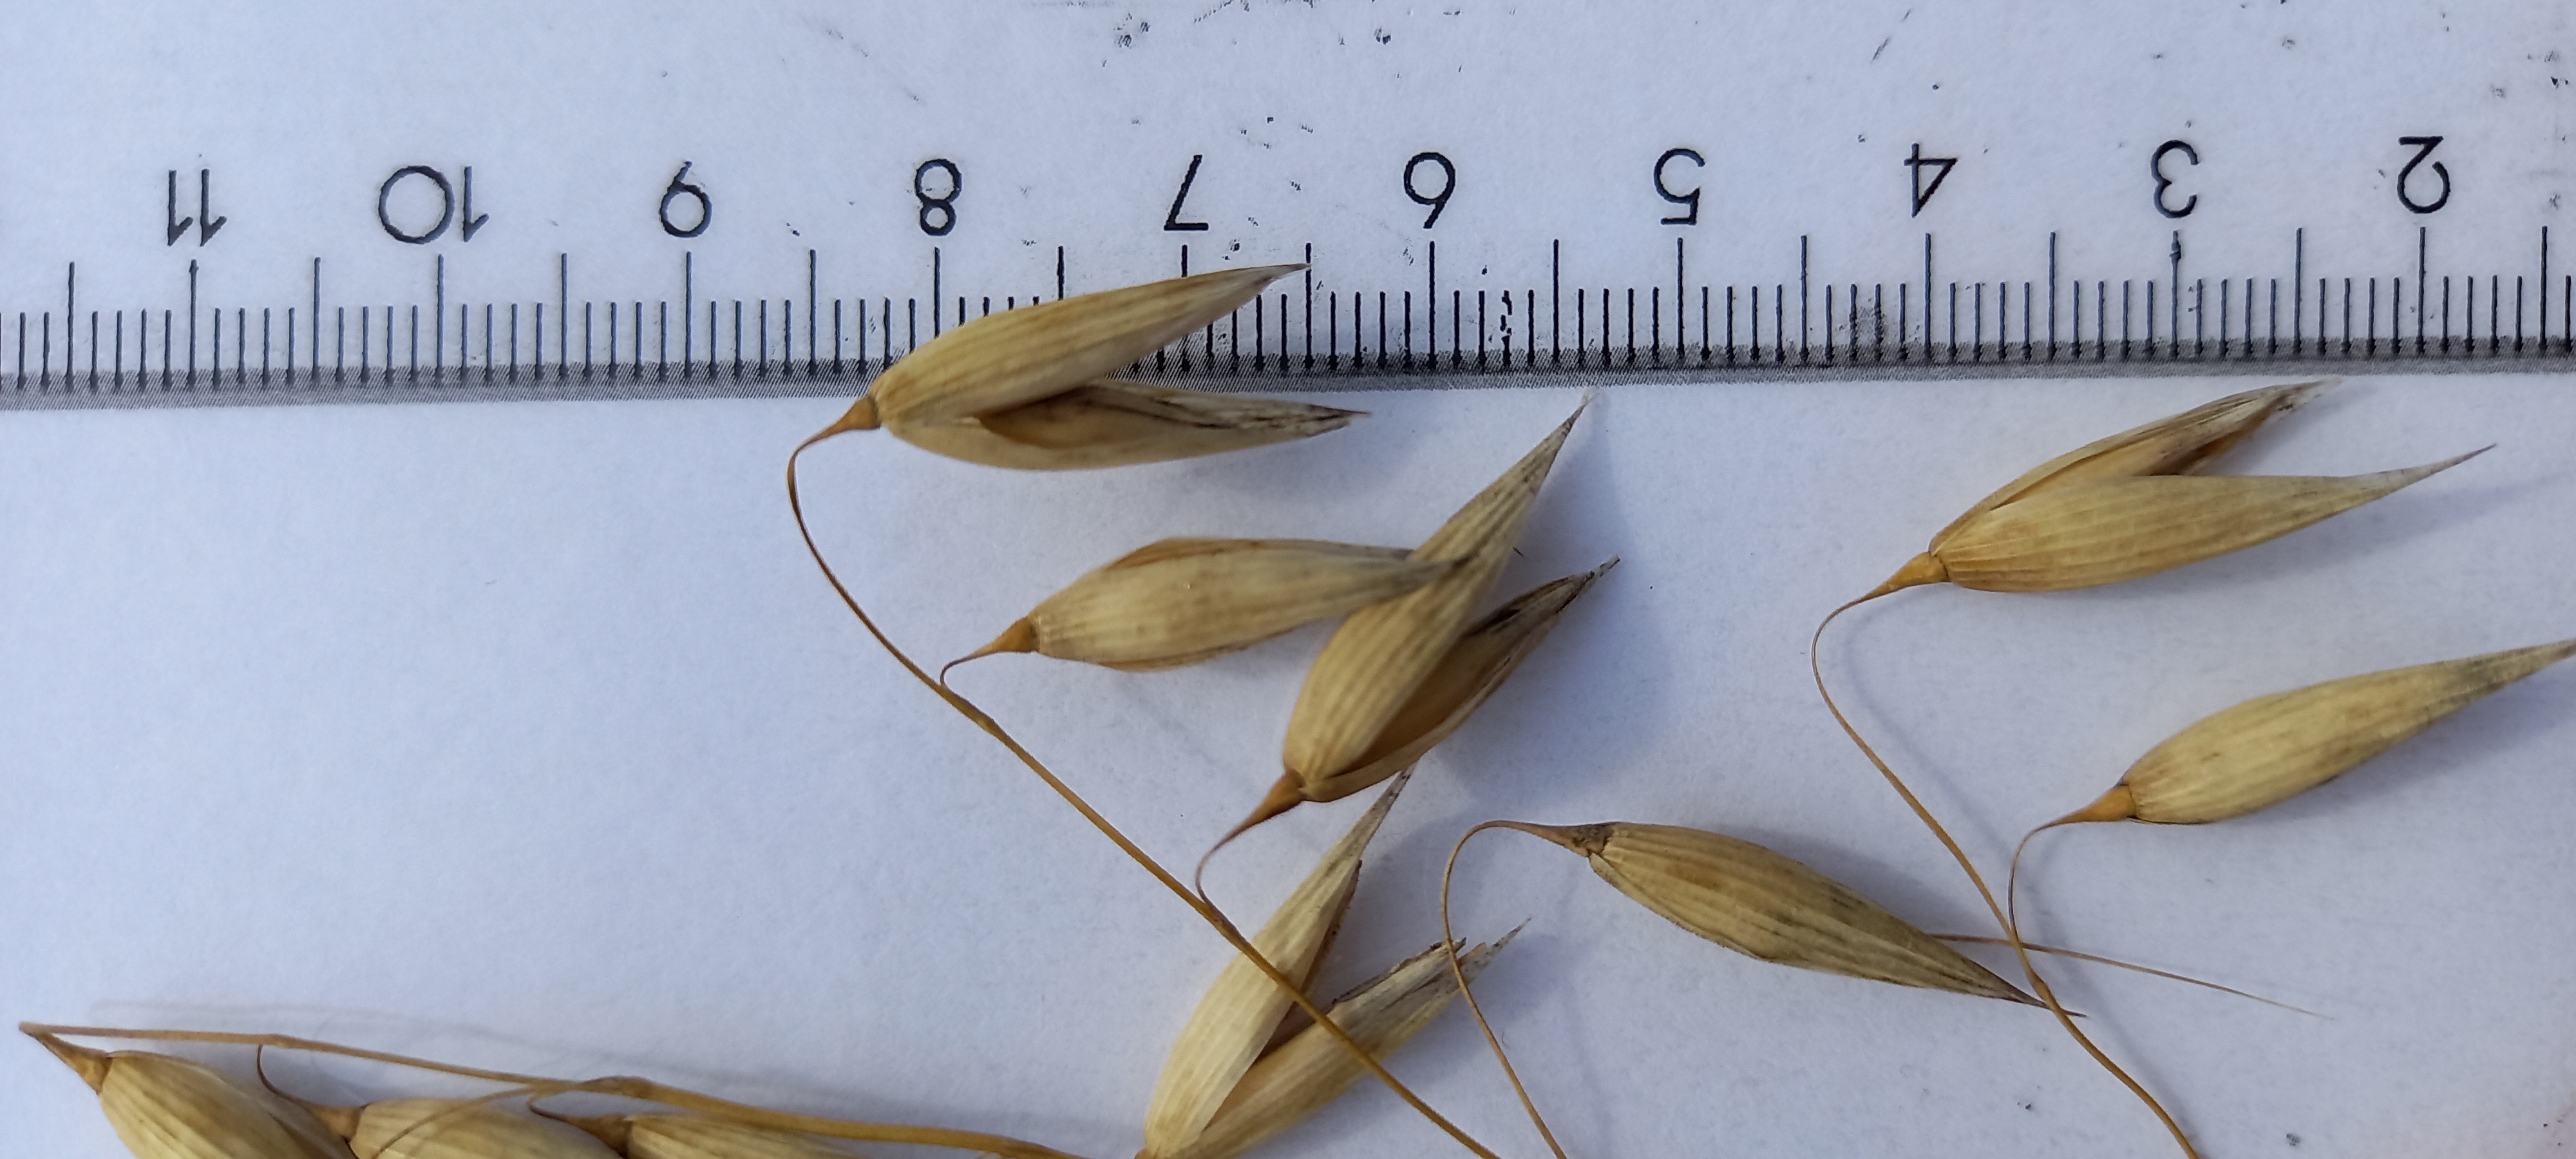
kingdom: Plantae
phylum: Tracheophyta
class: Liliopsida
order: Poales
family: Poaceae
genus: Avena
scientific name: Avena sativa
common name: Oat
